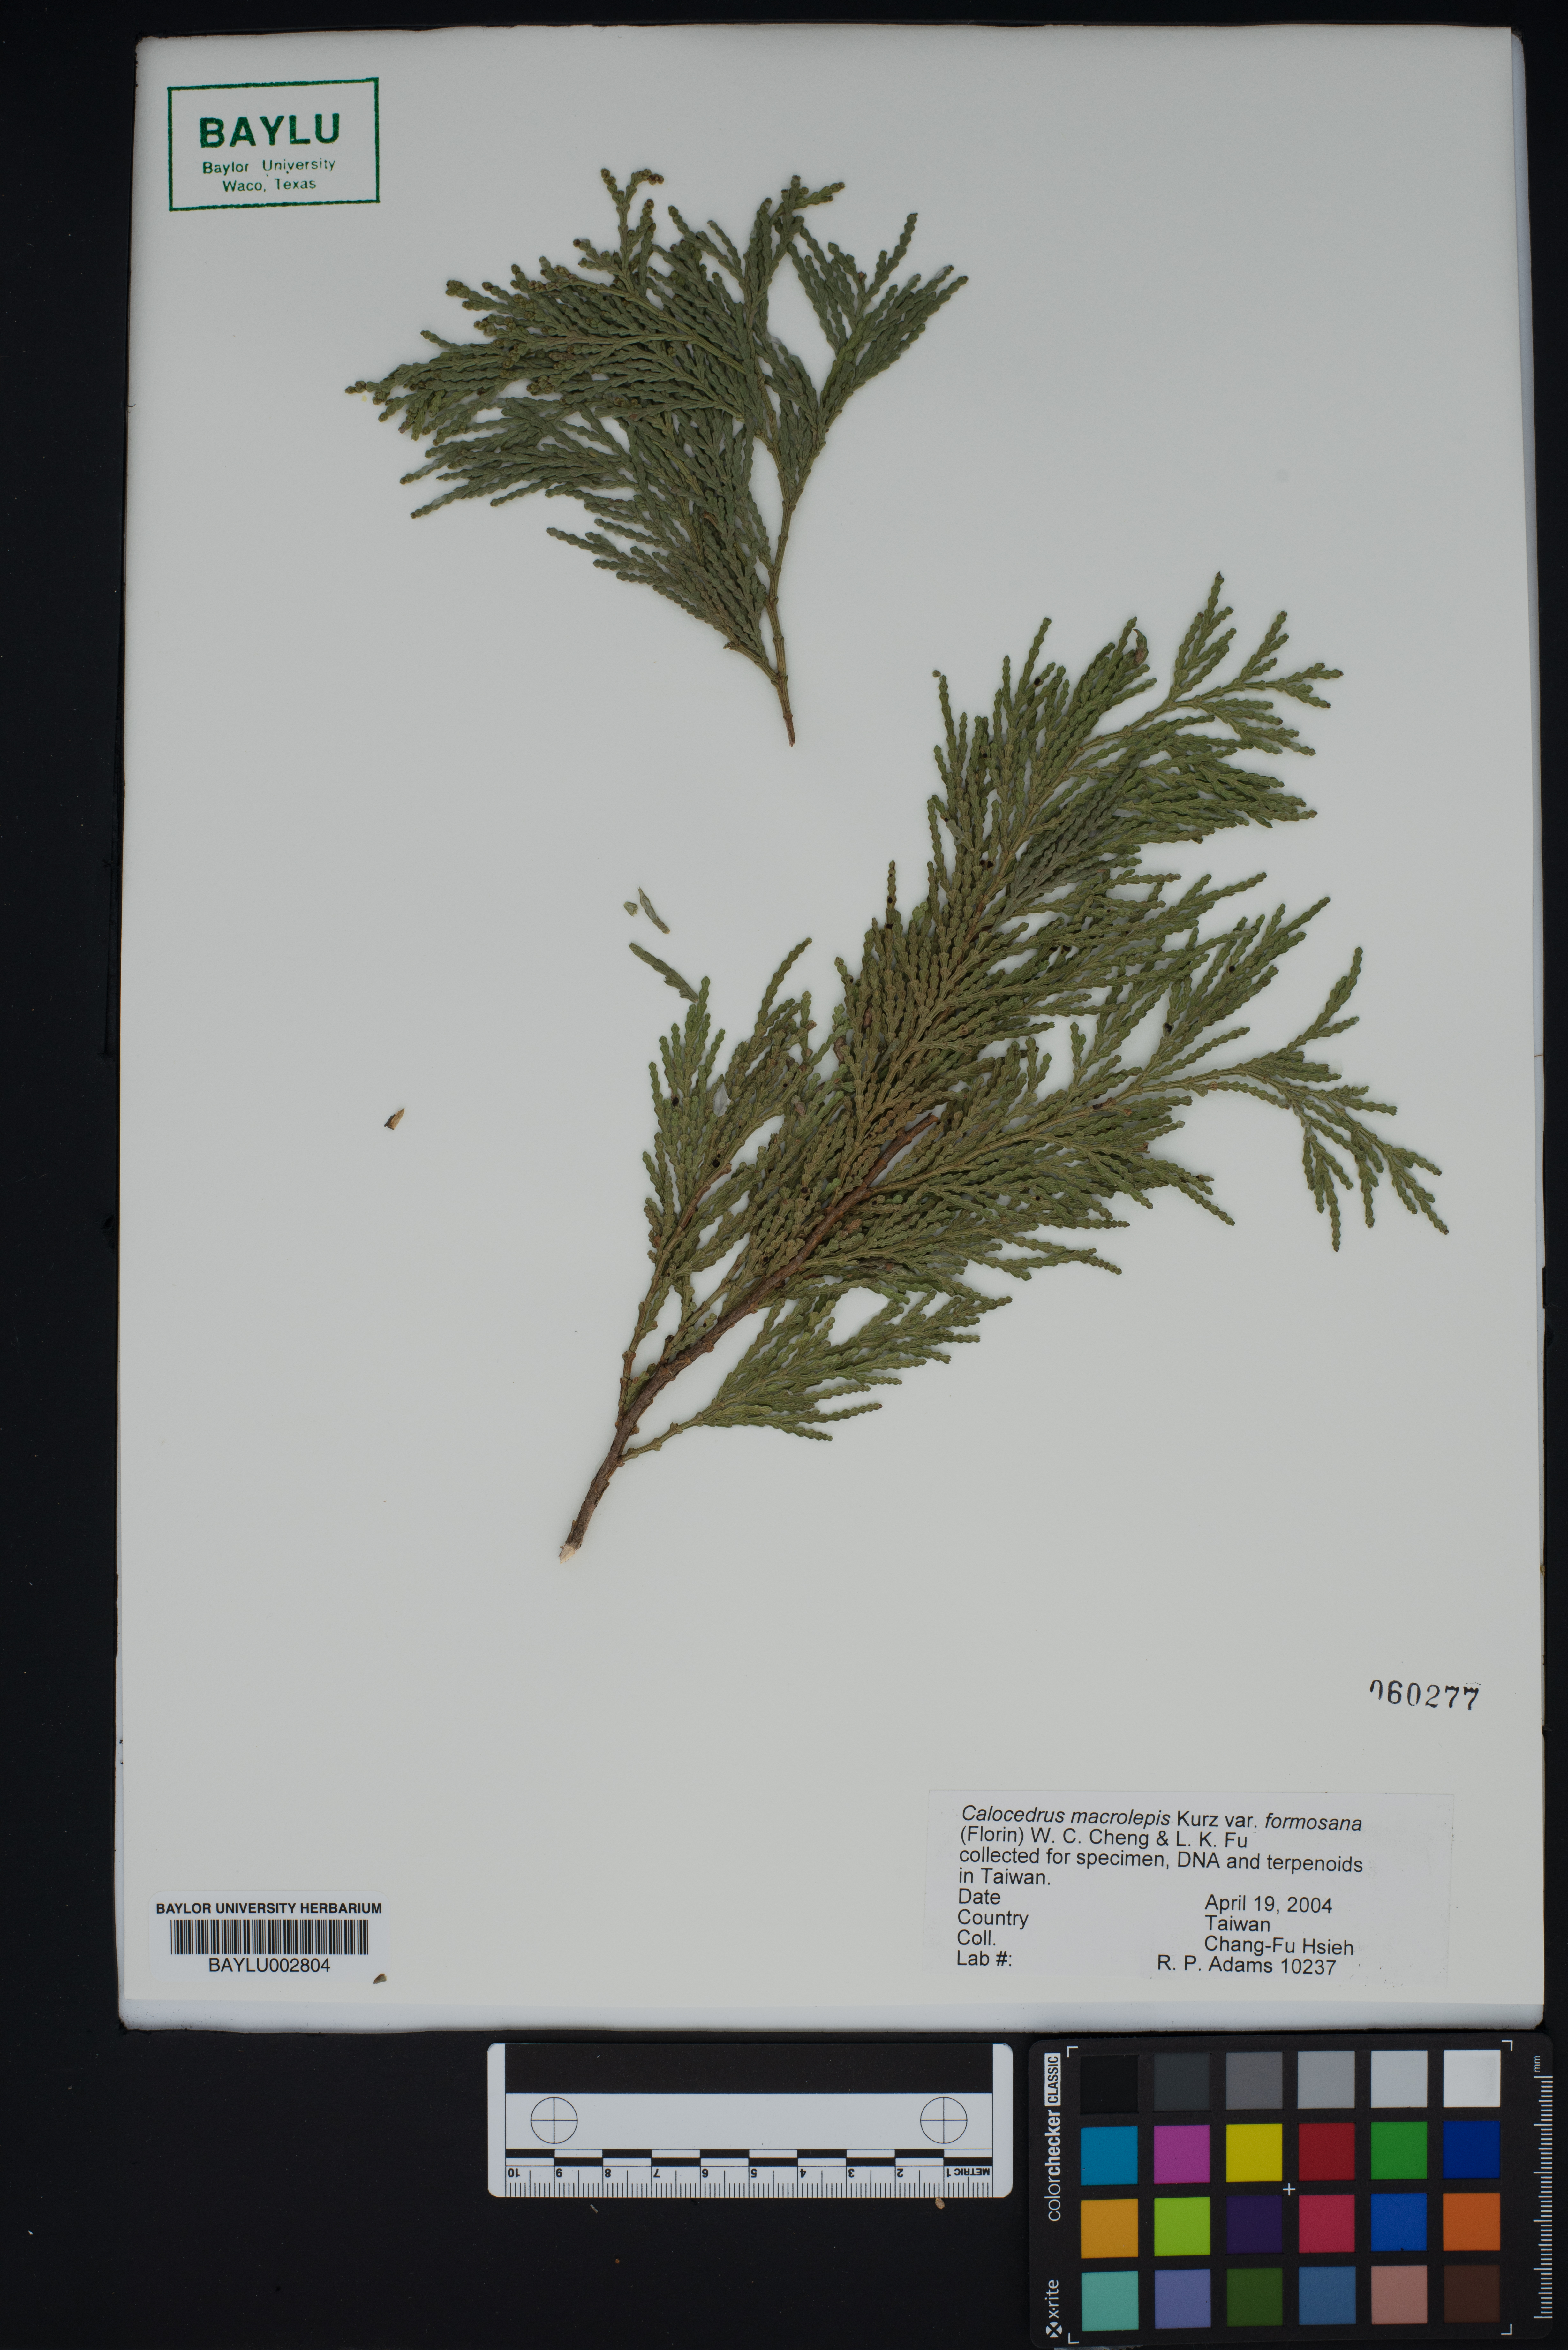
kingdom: Plantae
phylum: Tracheophyta
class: Pinopsida
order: Pinales
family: Cupressaceae
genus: Calocedrus
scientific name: Calocedrus formosana
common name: Taiwan incense-cedar
